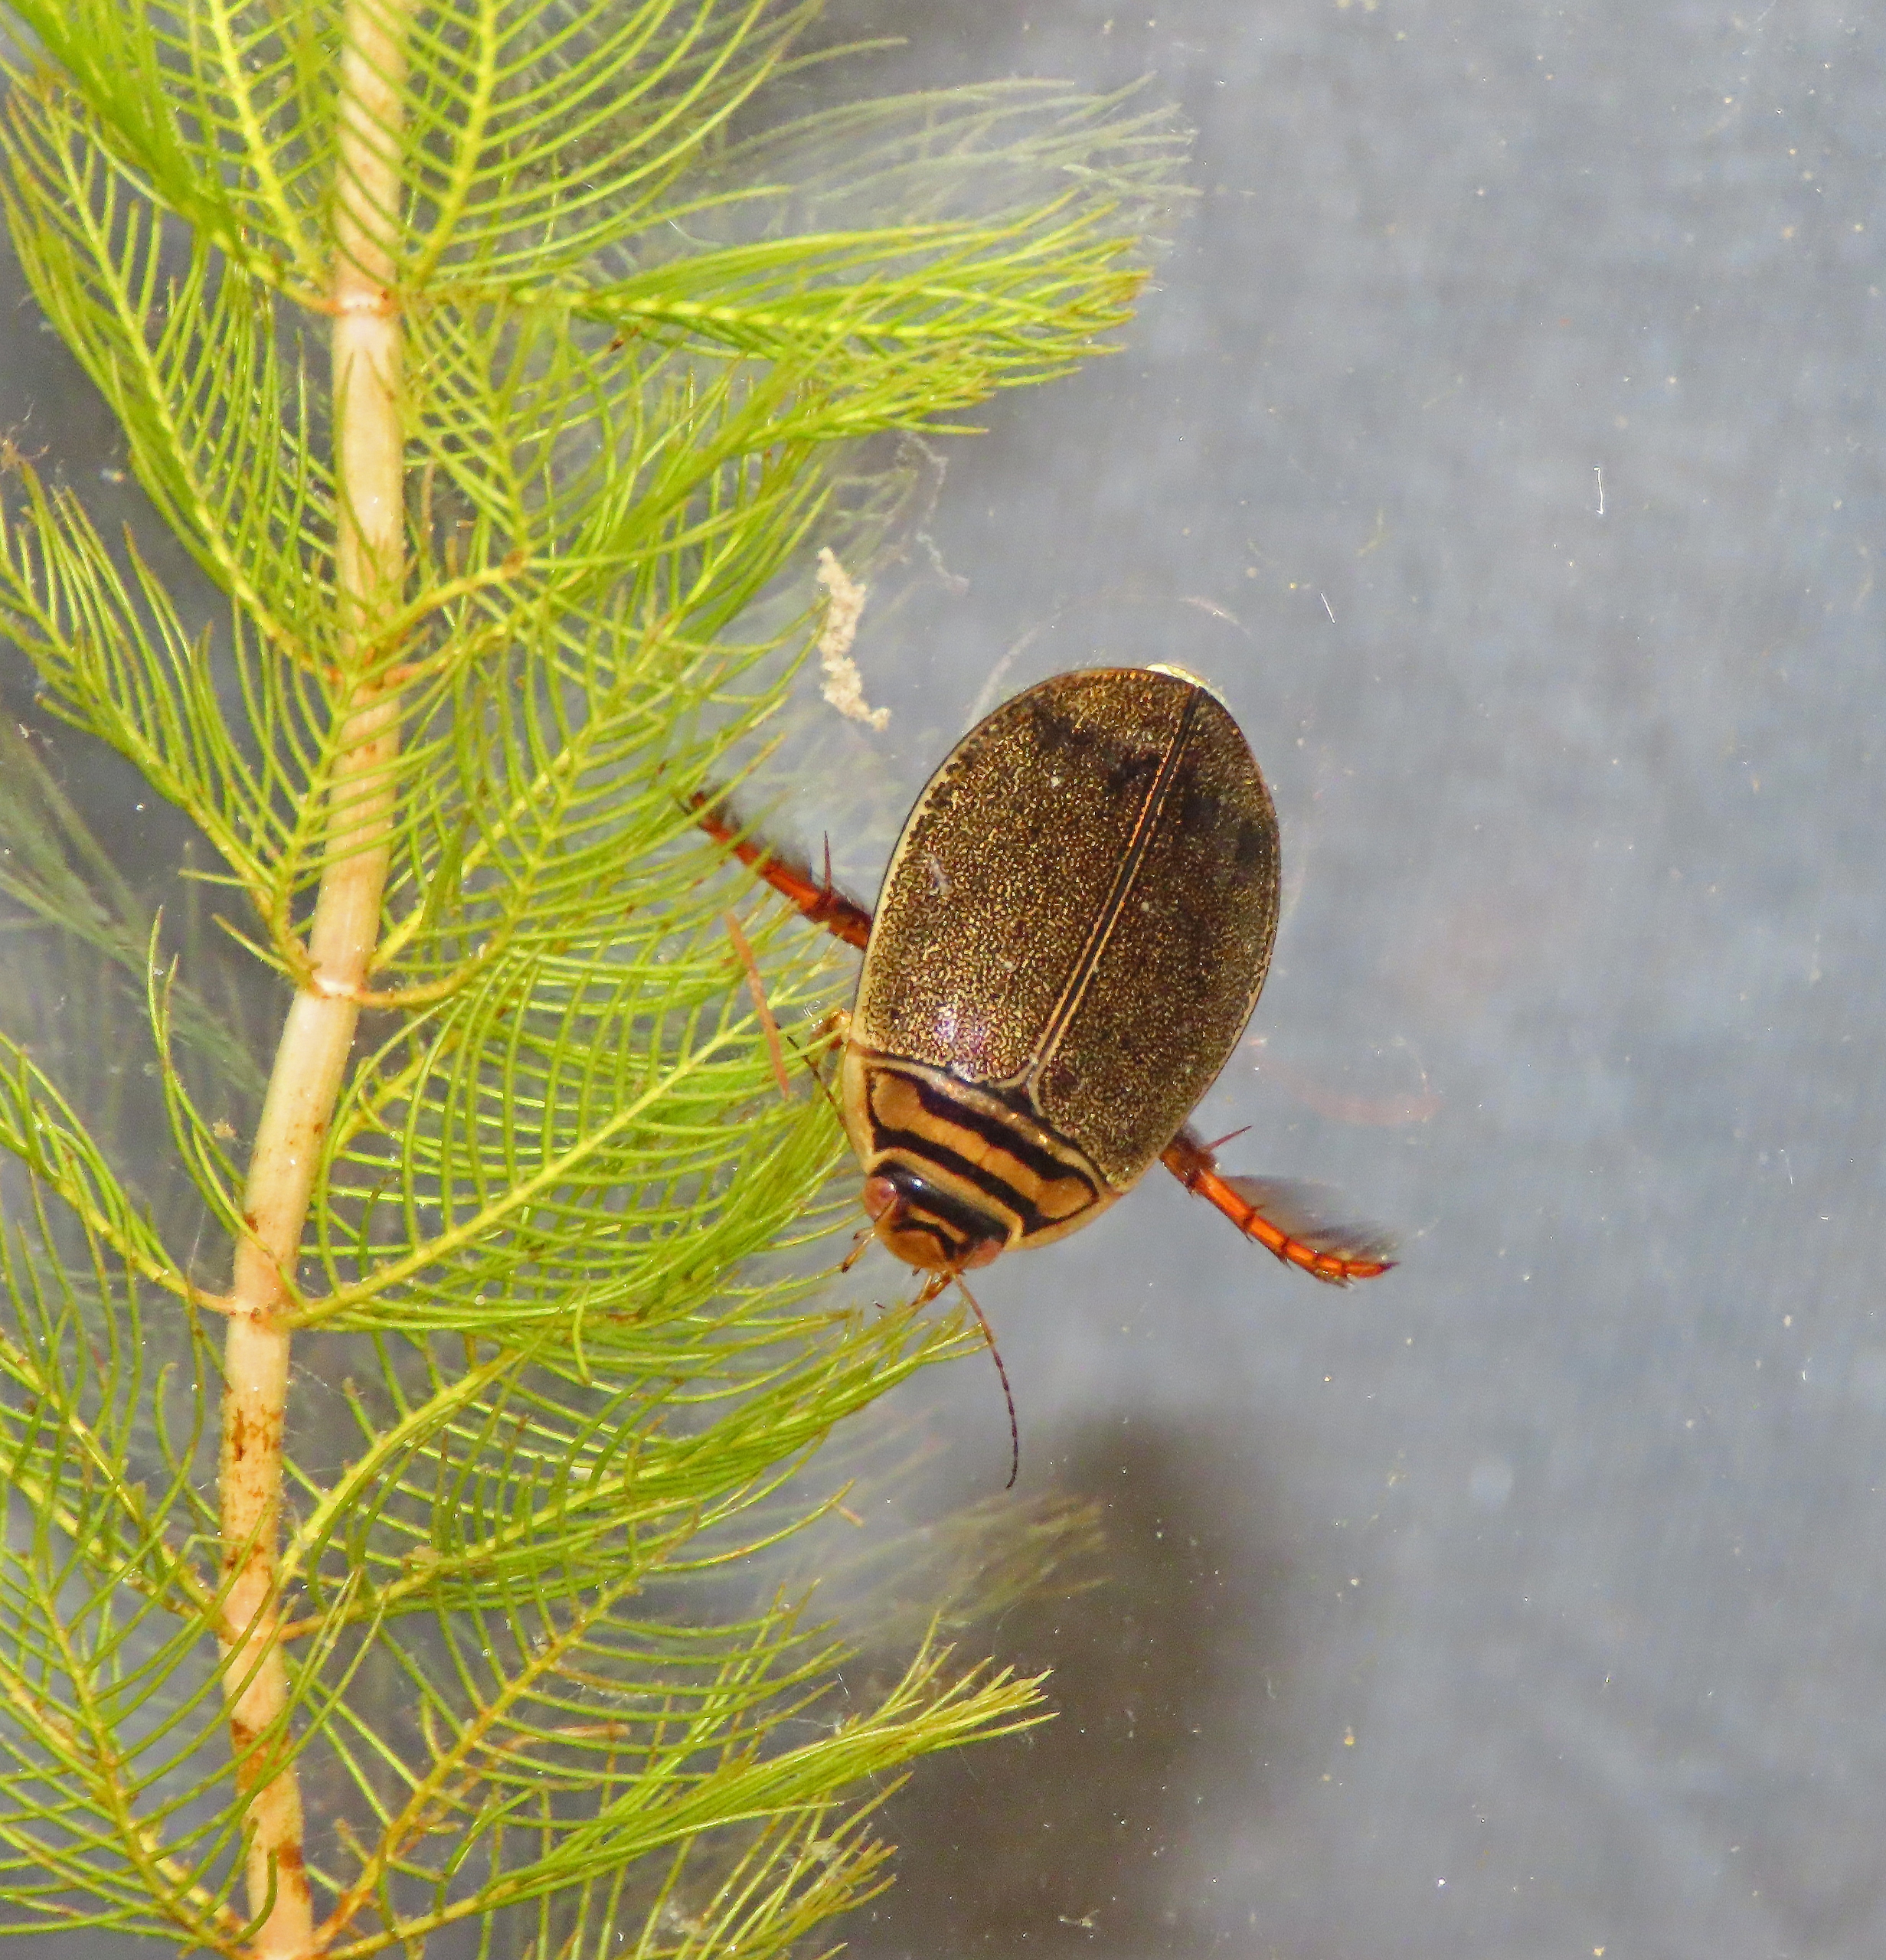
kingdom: Animalia
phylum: Arthropoda
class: Insecta
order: Coleoptera
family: Dytiscidae
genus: Acilius
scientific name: Acilius canaliculatus
